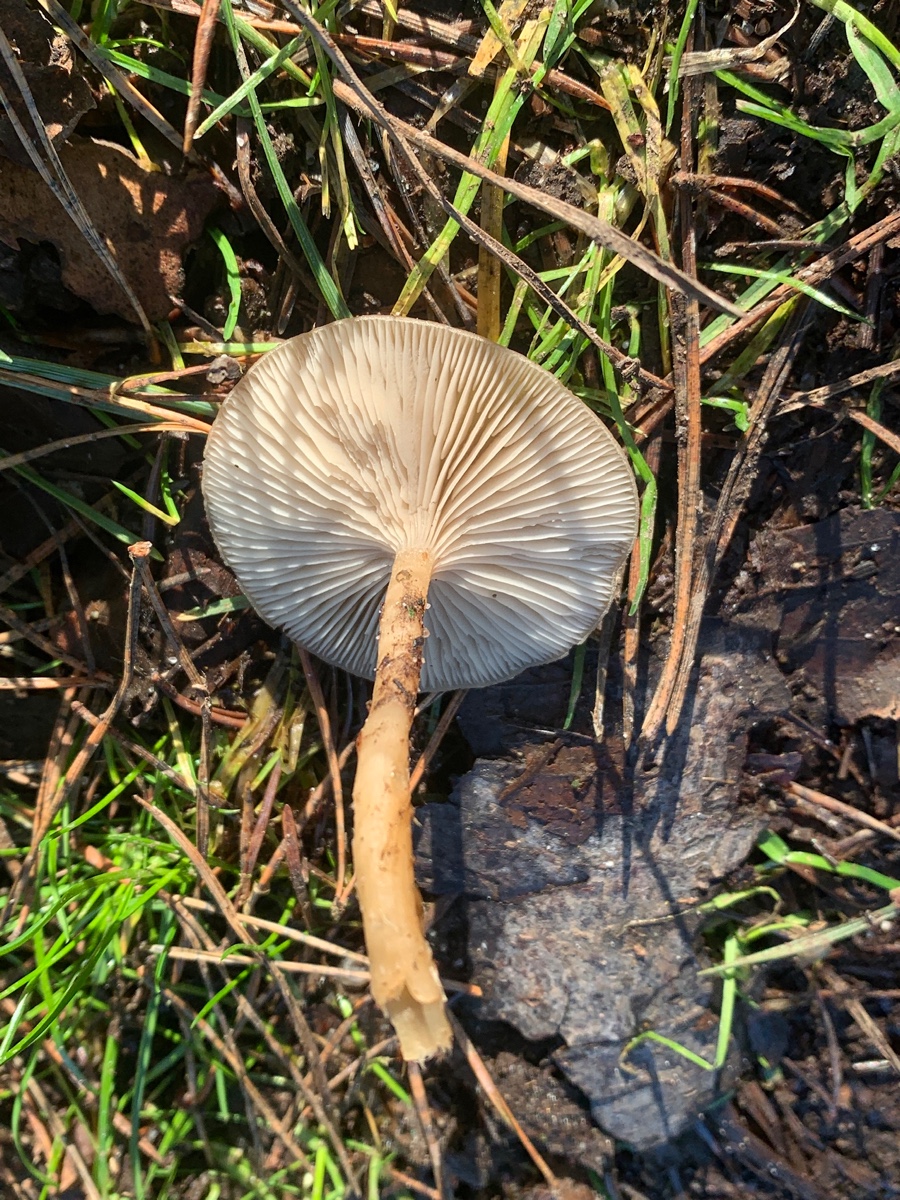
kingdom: Fungi
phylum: Basidiomycota
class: Agaricomycetes
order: Agaricales
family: Tricholomataceae
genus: Clitocybe
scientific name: Clitocybe fragrans
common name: vellugtende tragthat
